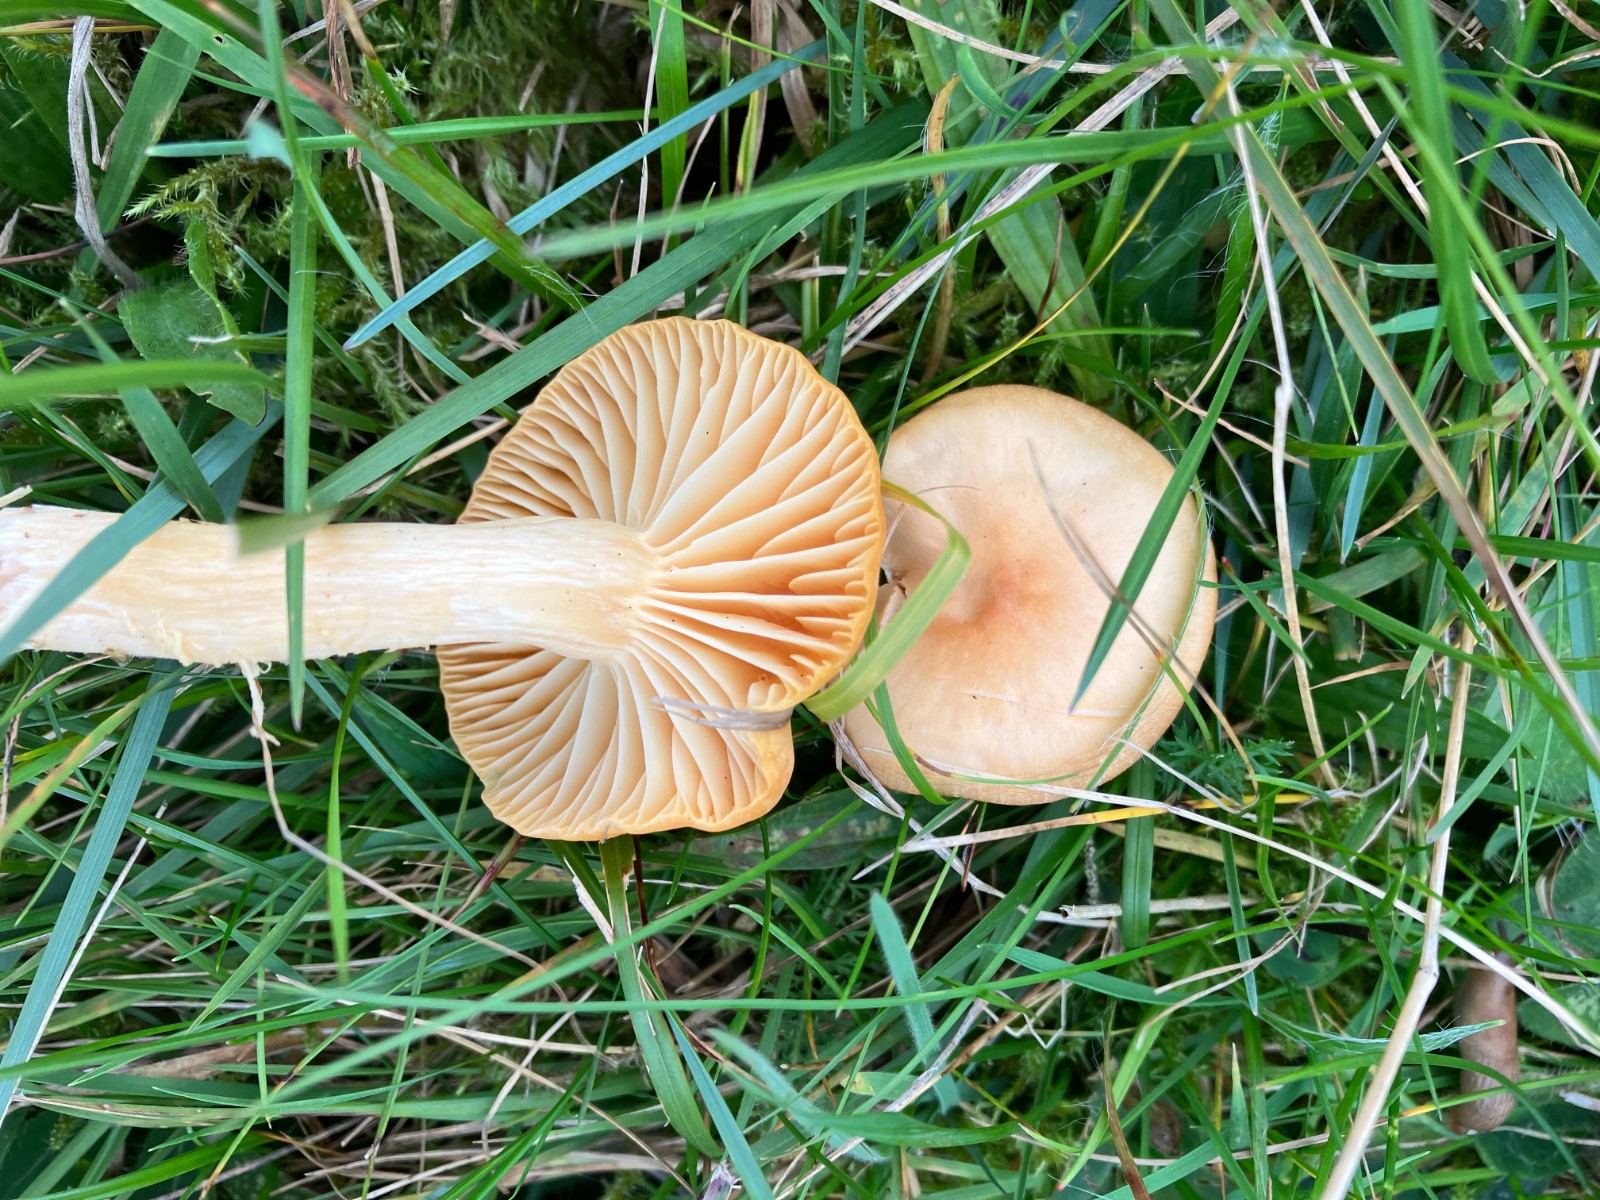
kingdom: Fungi
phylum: Basidiomycota
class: Agaricomycetes
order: Agaricales
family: Hygrophoraceae
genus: Cuphophyllus
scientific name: Cuphophyllus pratensis
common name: eng-vokshat
